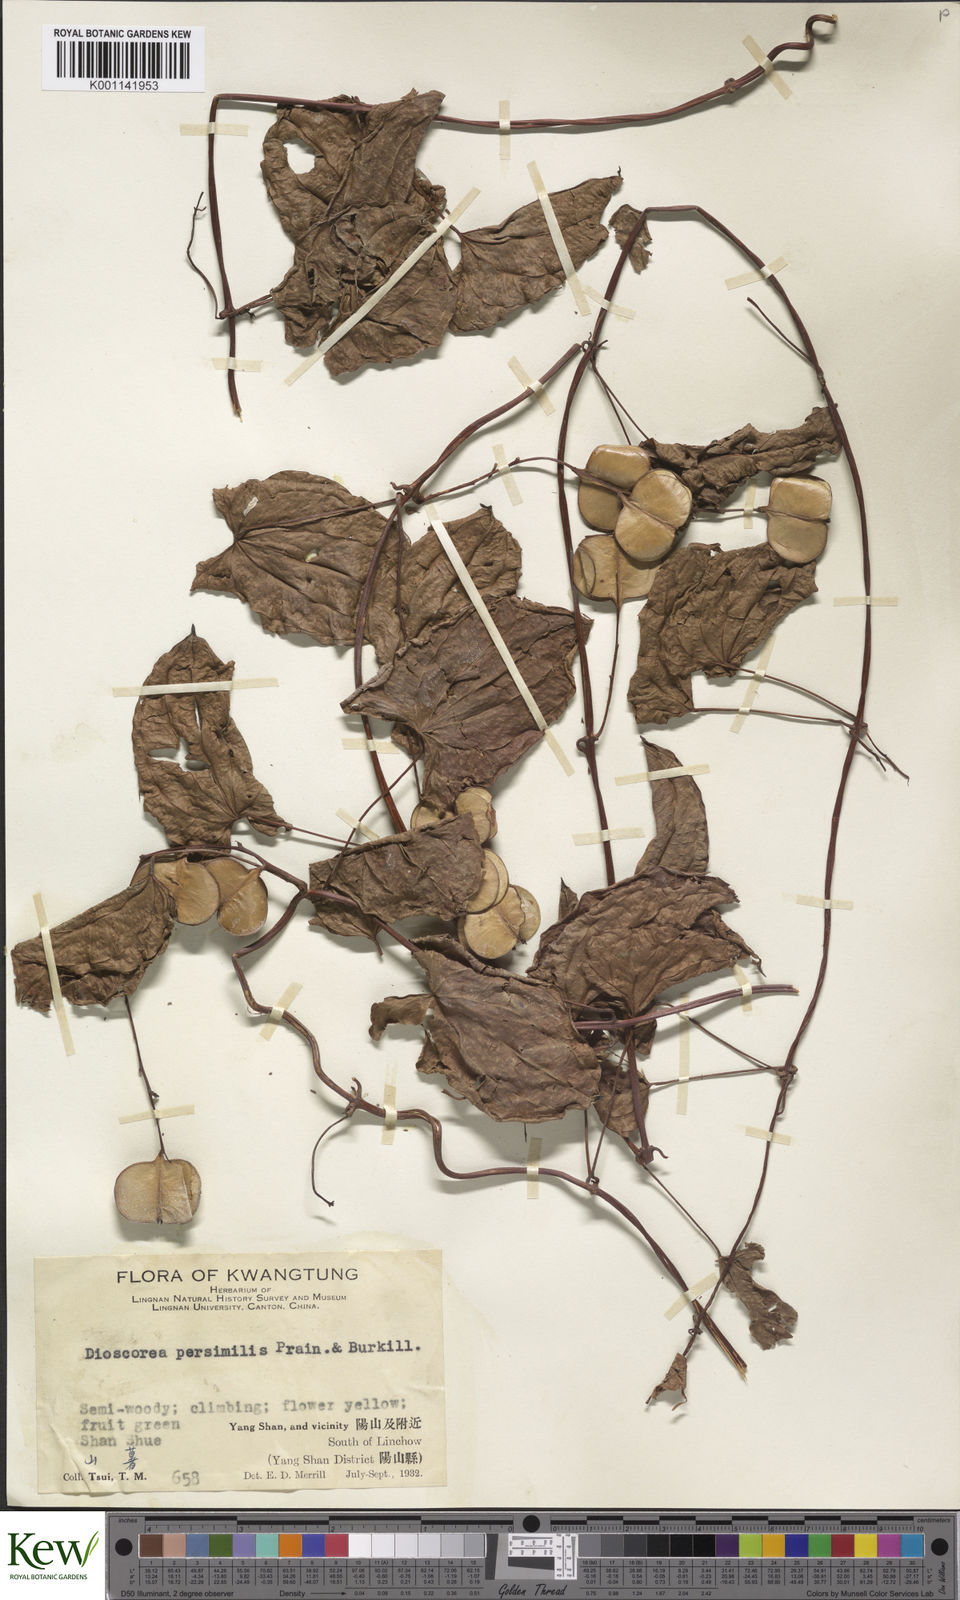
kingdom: Plantae
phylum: Tracheophyta
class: Liliopsida
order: Dioscoreales
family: Dioscoreaceae
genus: Dioscorea
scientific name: Dioscorea hamiltonii
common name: Mountain yam
